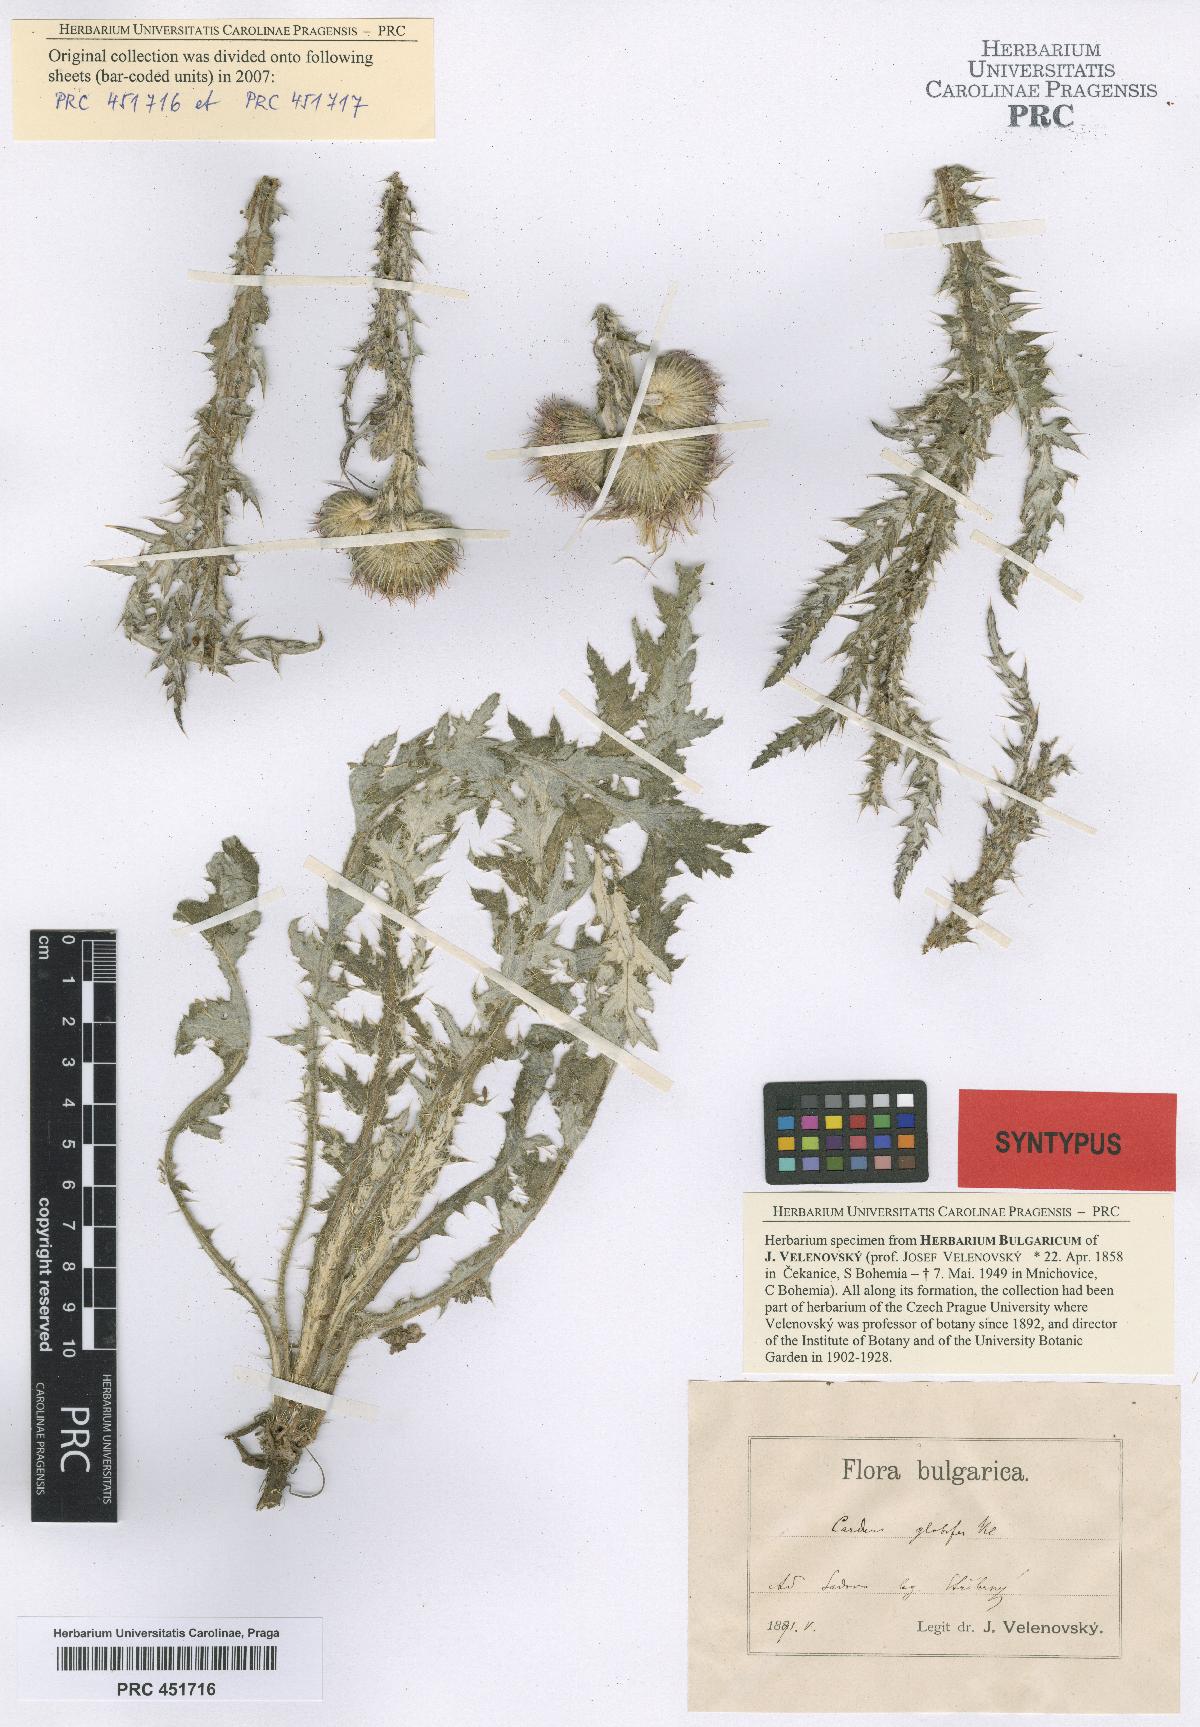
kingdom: Plantae
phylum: Tracheophyta
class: Magnoliopsida
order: Asterales
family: Asteraceae
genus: Carduus
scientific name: Carduus candicans
